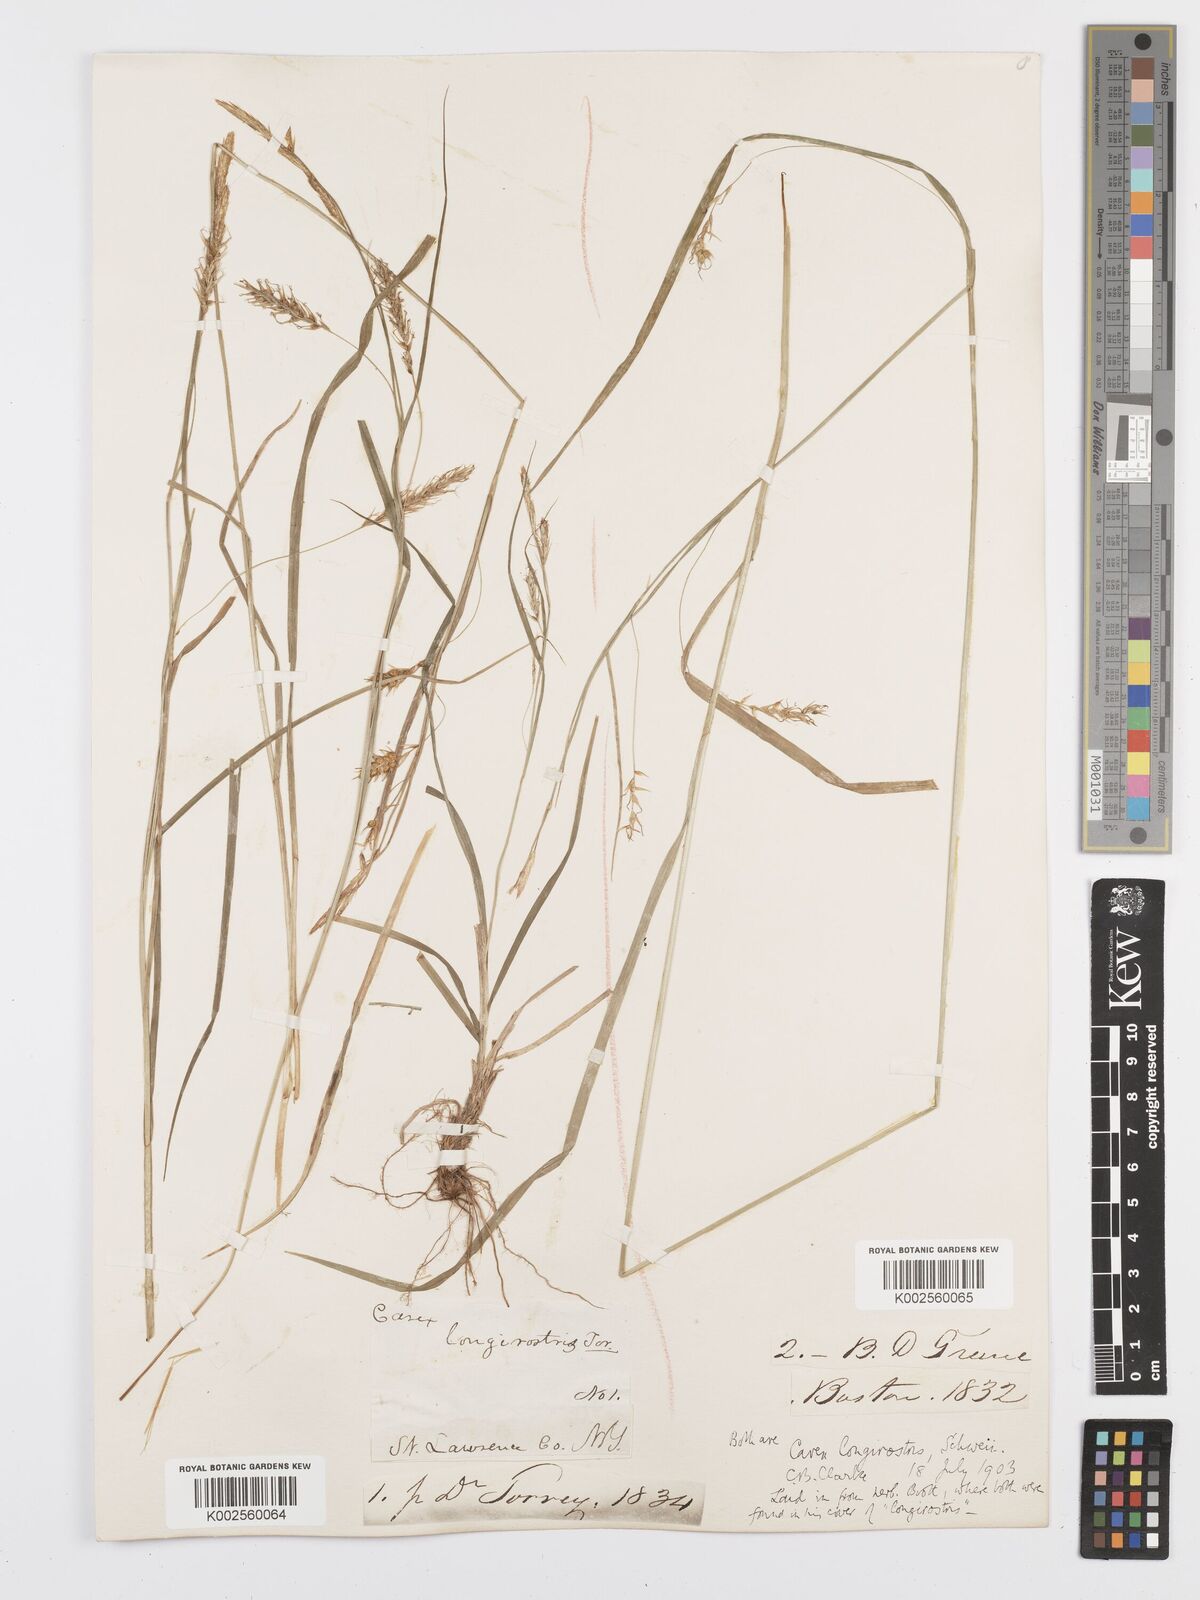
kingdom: Plantae
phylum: Tracheophyta
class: Liliopsida
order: Poales
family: Cyperaceae
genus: Carex
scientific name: Carex sprengelii
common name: Long-beaked sedge
